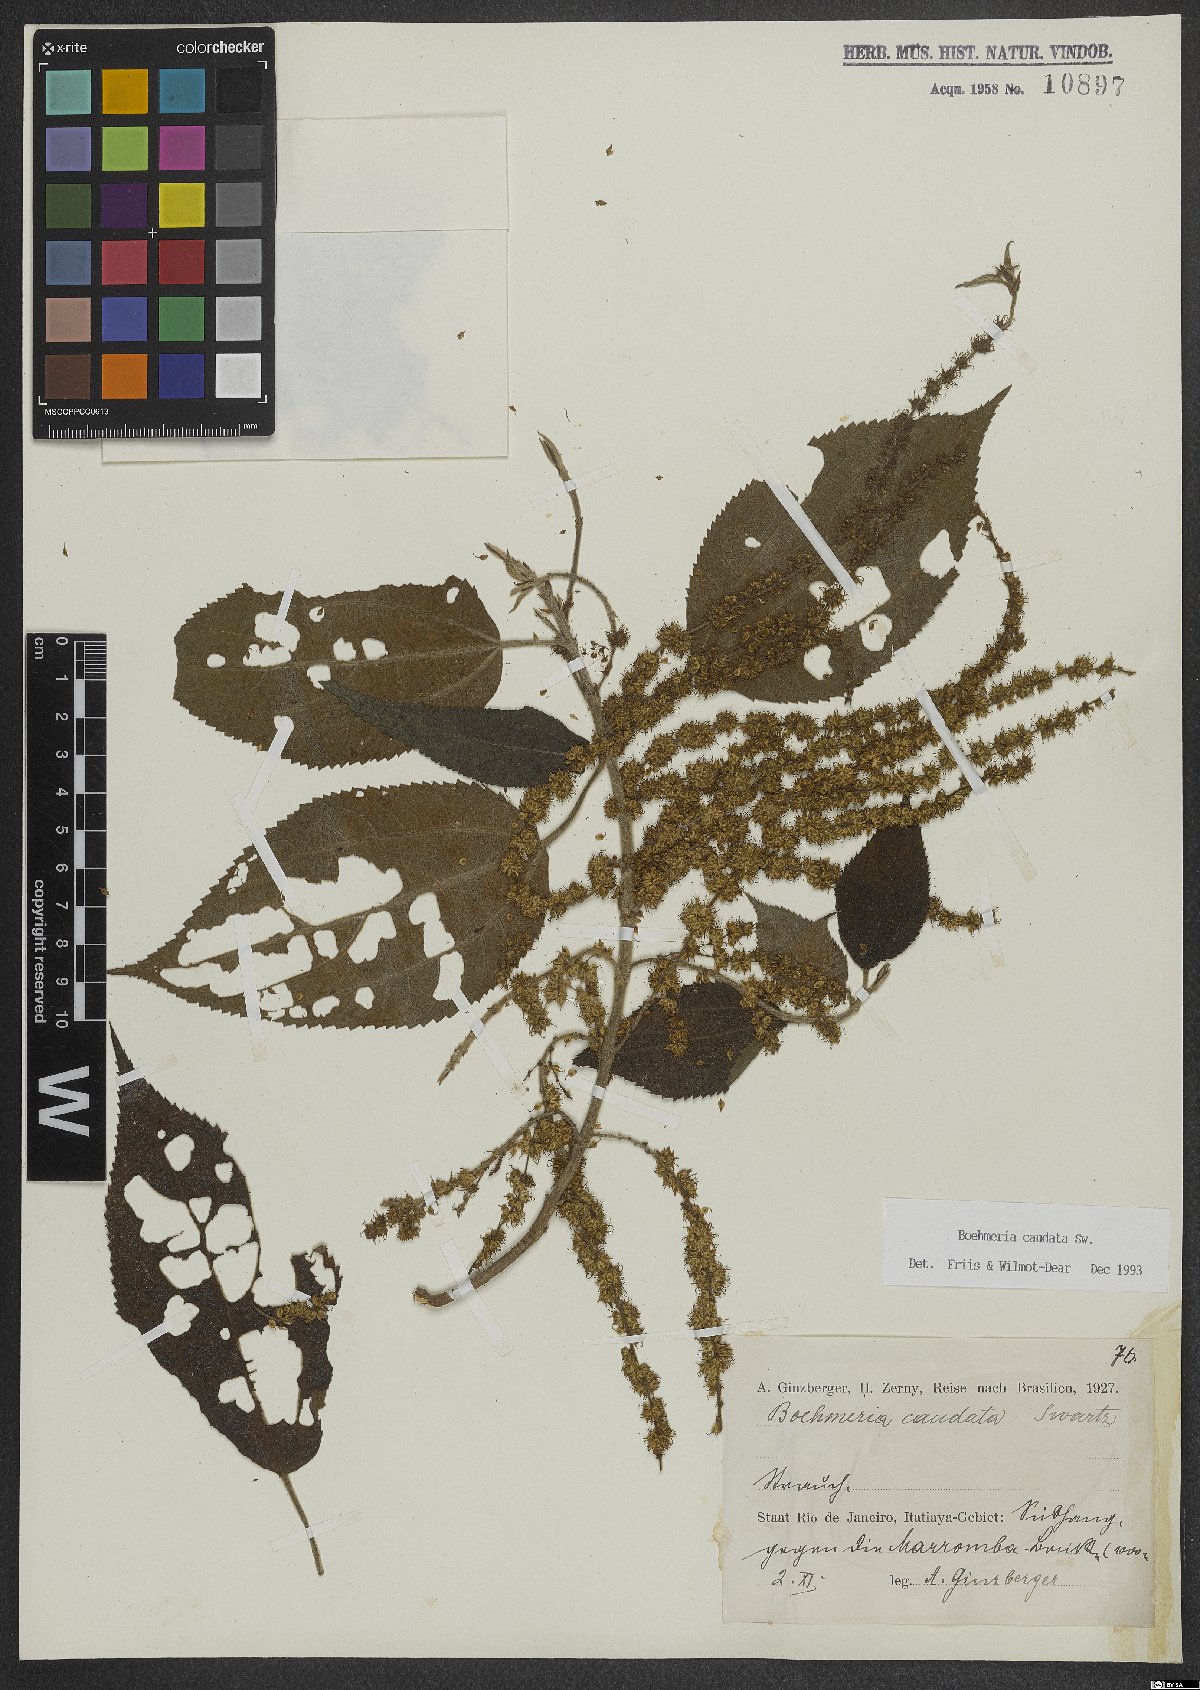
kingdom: Plantae
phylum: Tracheophyta
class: Magnoliopsida
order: Rosales
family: Urticaceae
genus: Boehmeria
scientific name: Boehmeria caudata
